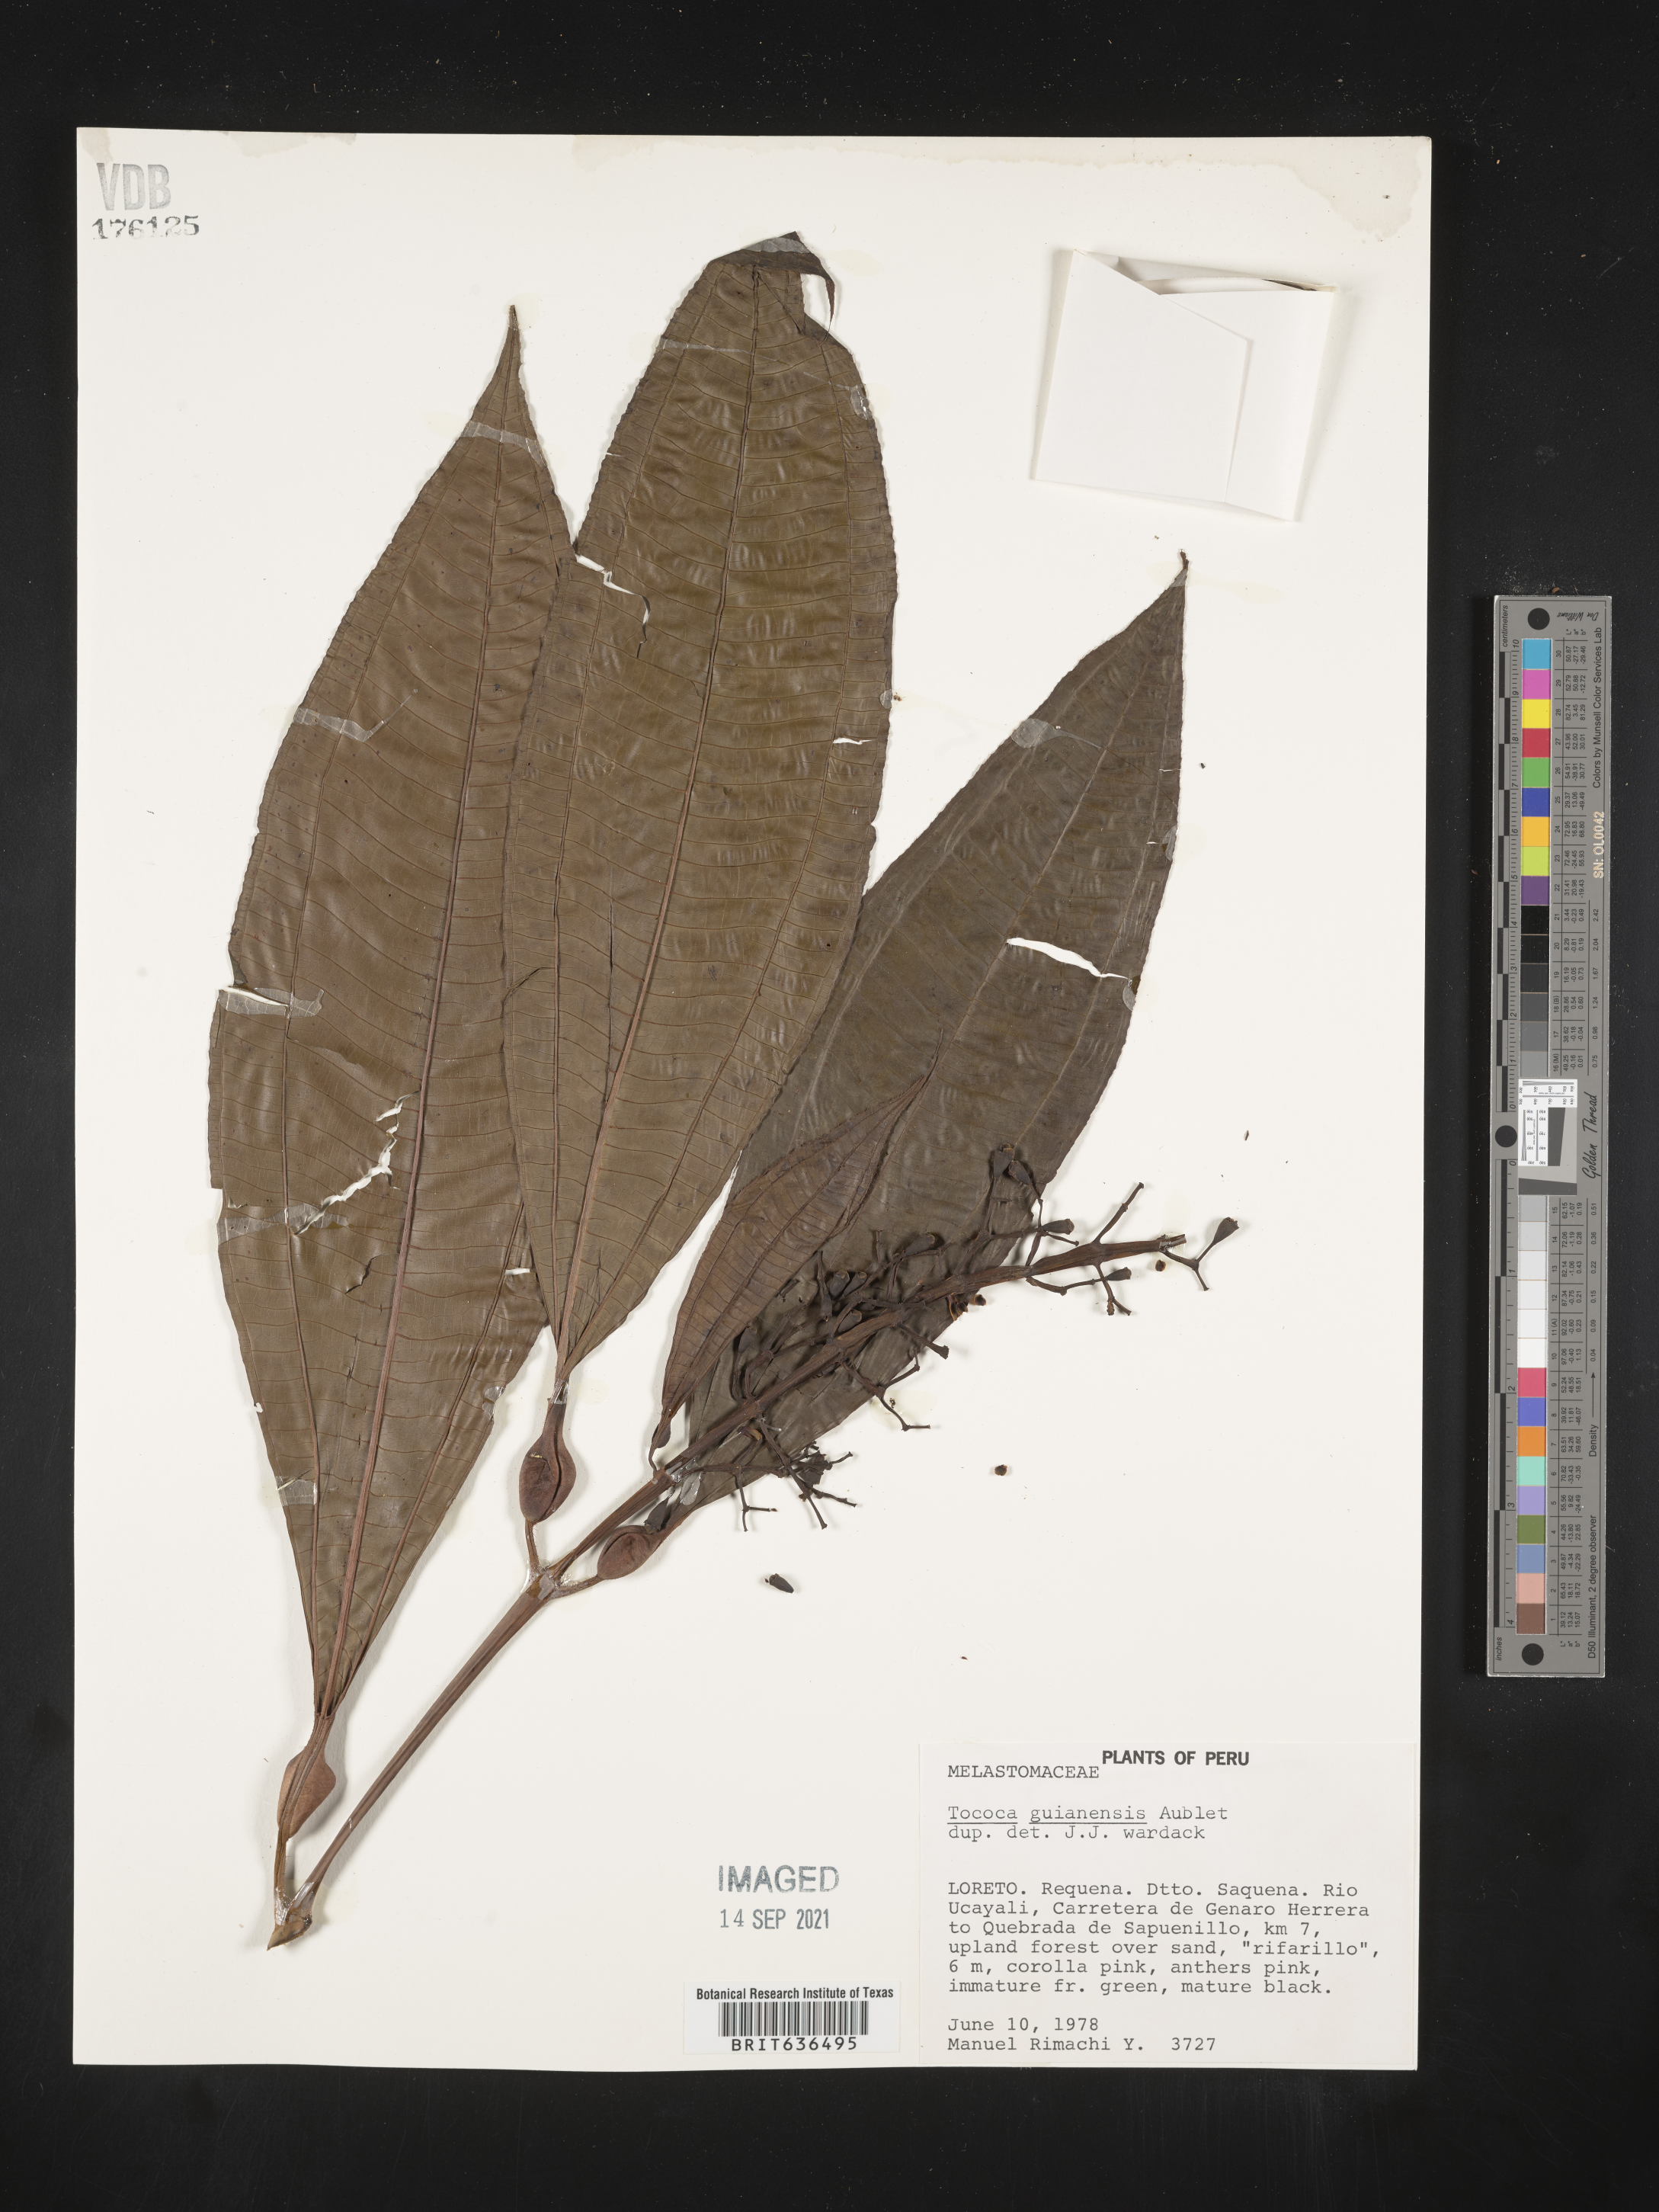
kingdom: Plantae
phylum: Tracheophyta
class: Magnoliopsida
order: Myrtales
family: Melastomataceae
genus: Tibouchina
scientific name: Tibouchina
